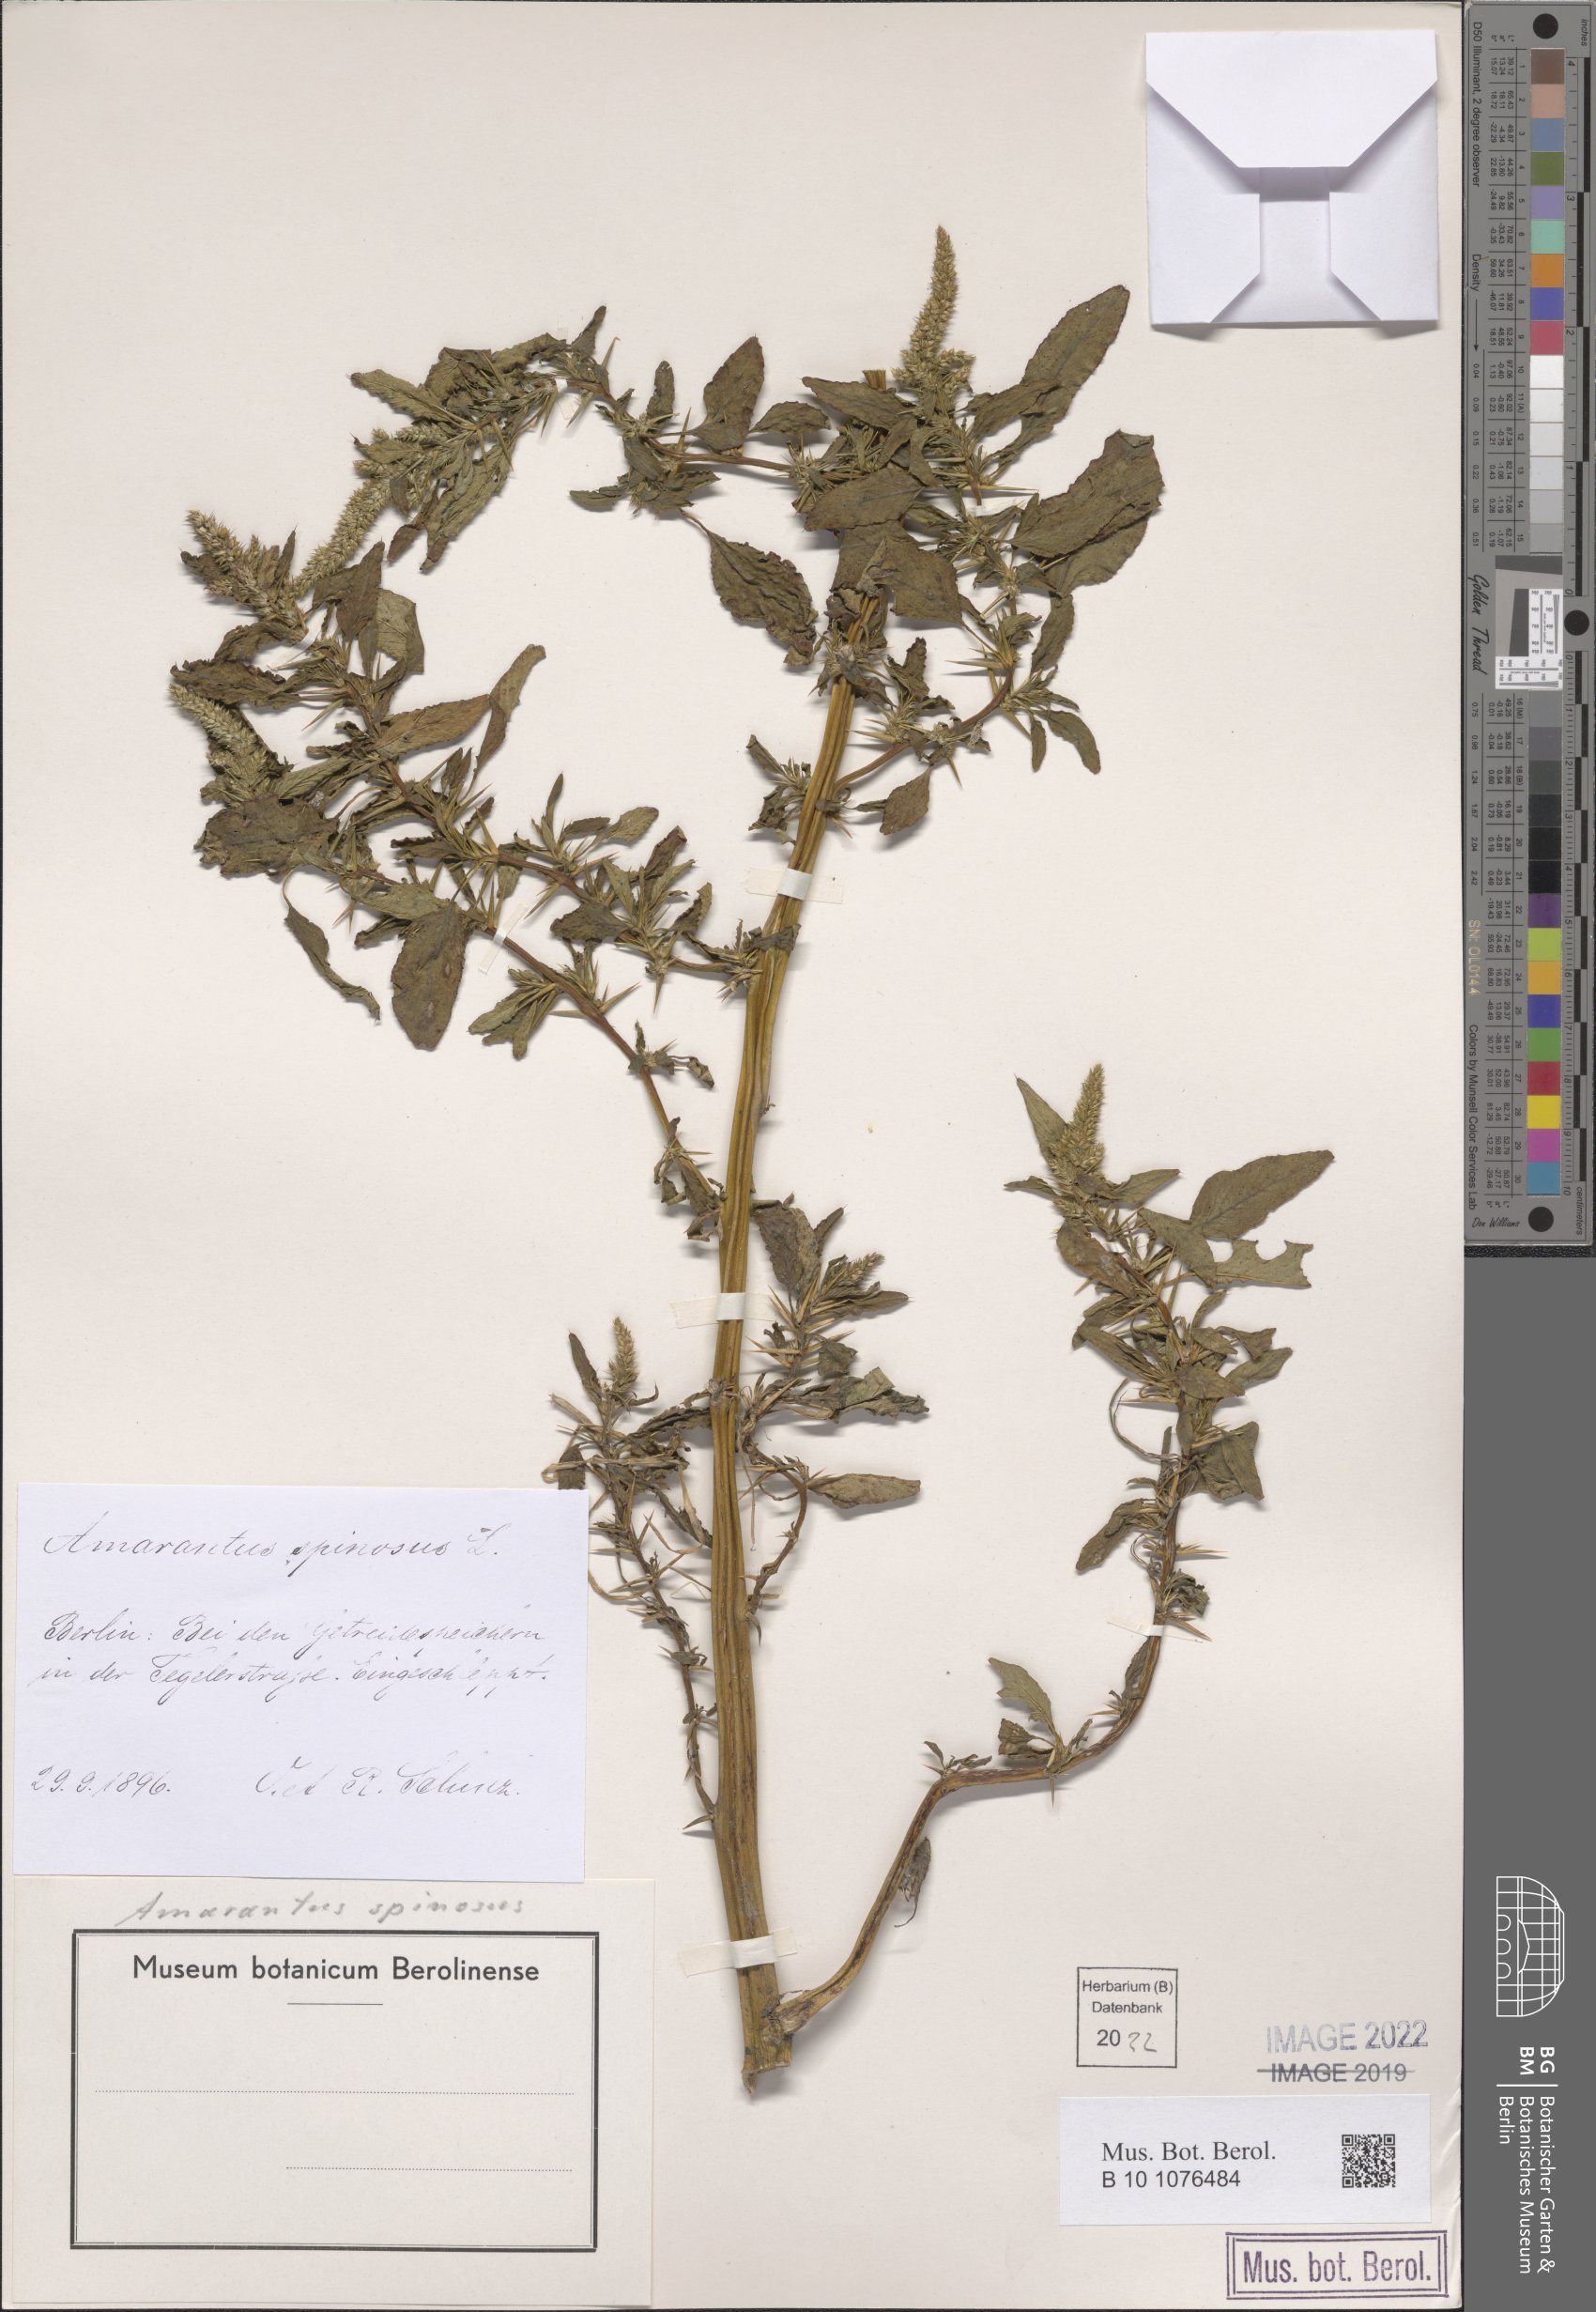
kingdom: Plantae
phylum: Tracheophyta
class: Magnoliopsida
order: Caryophyllales
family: Amaranthaceae
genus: Amaranthus
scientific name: Amaranthus spinosus
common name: Spiny amaranth
